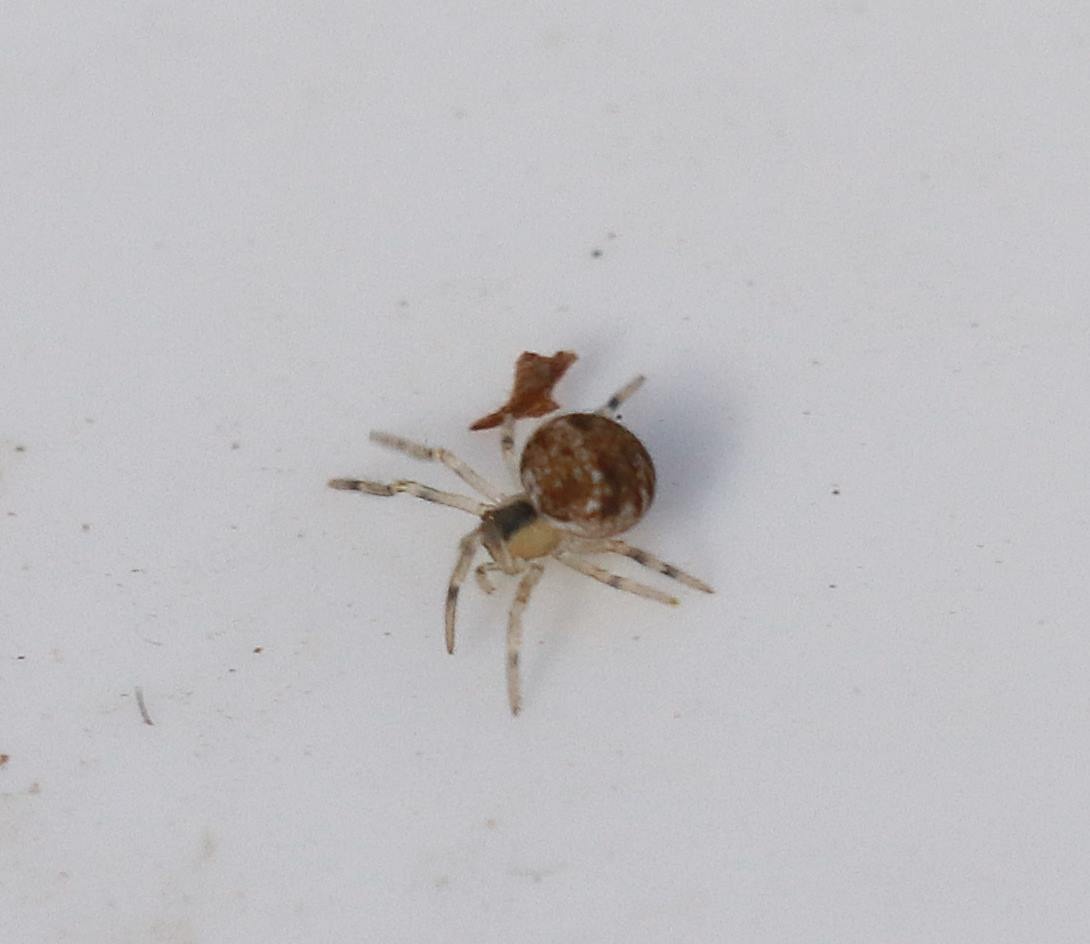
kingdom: Animalia
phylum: Arthropoda
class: Arachnida
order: Araneae
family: Theridiidae
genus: Paidiscura
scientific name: Paidiscura pallens
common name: Lille bladkugleedderkop
